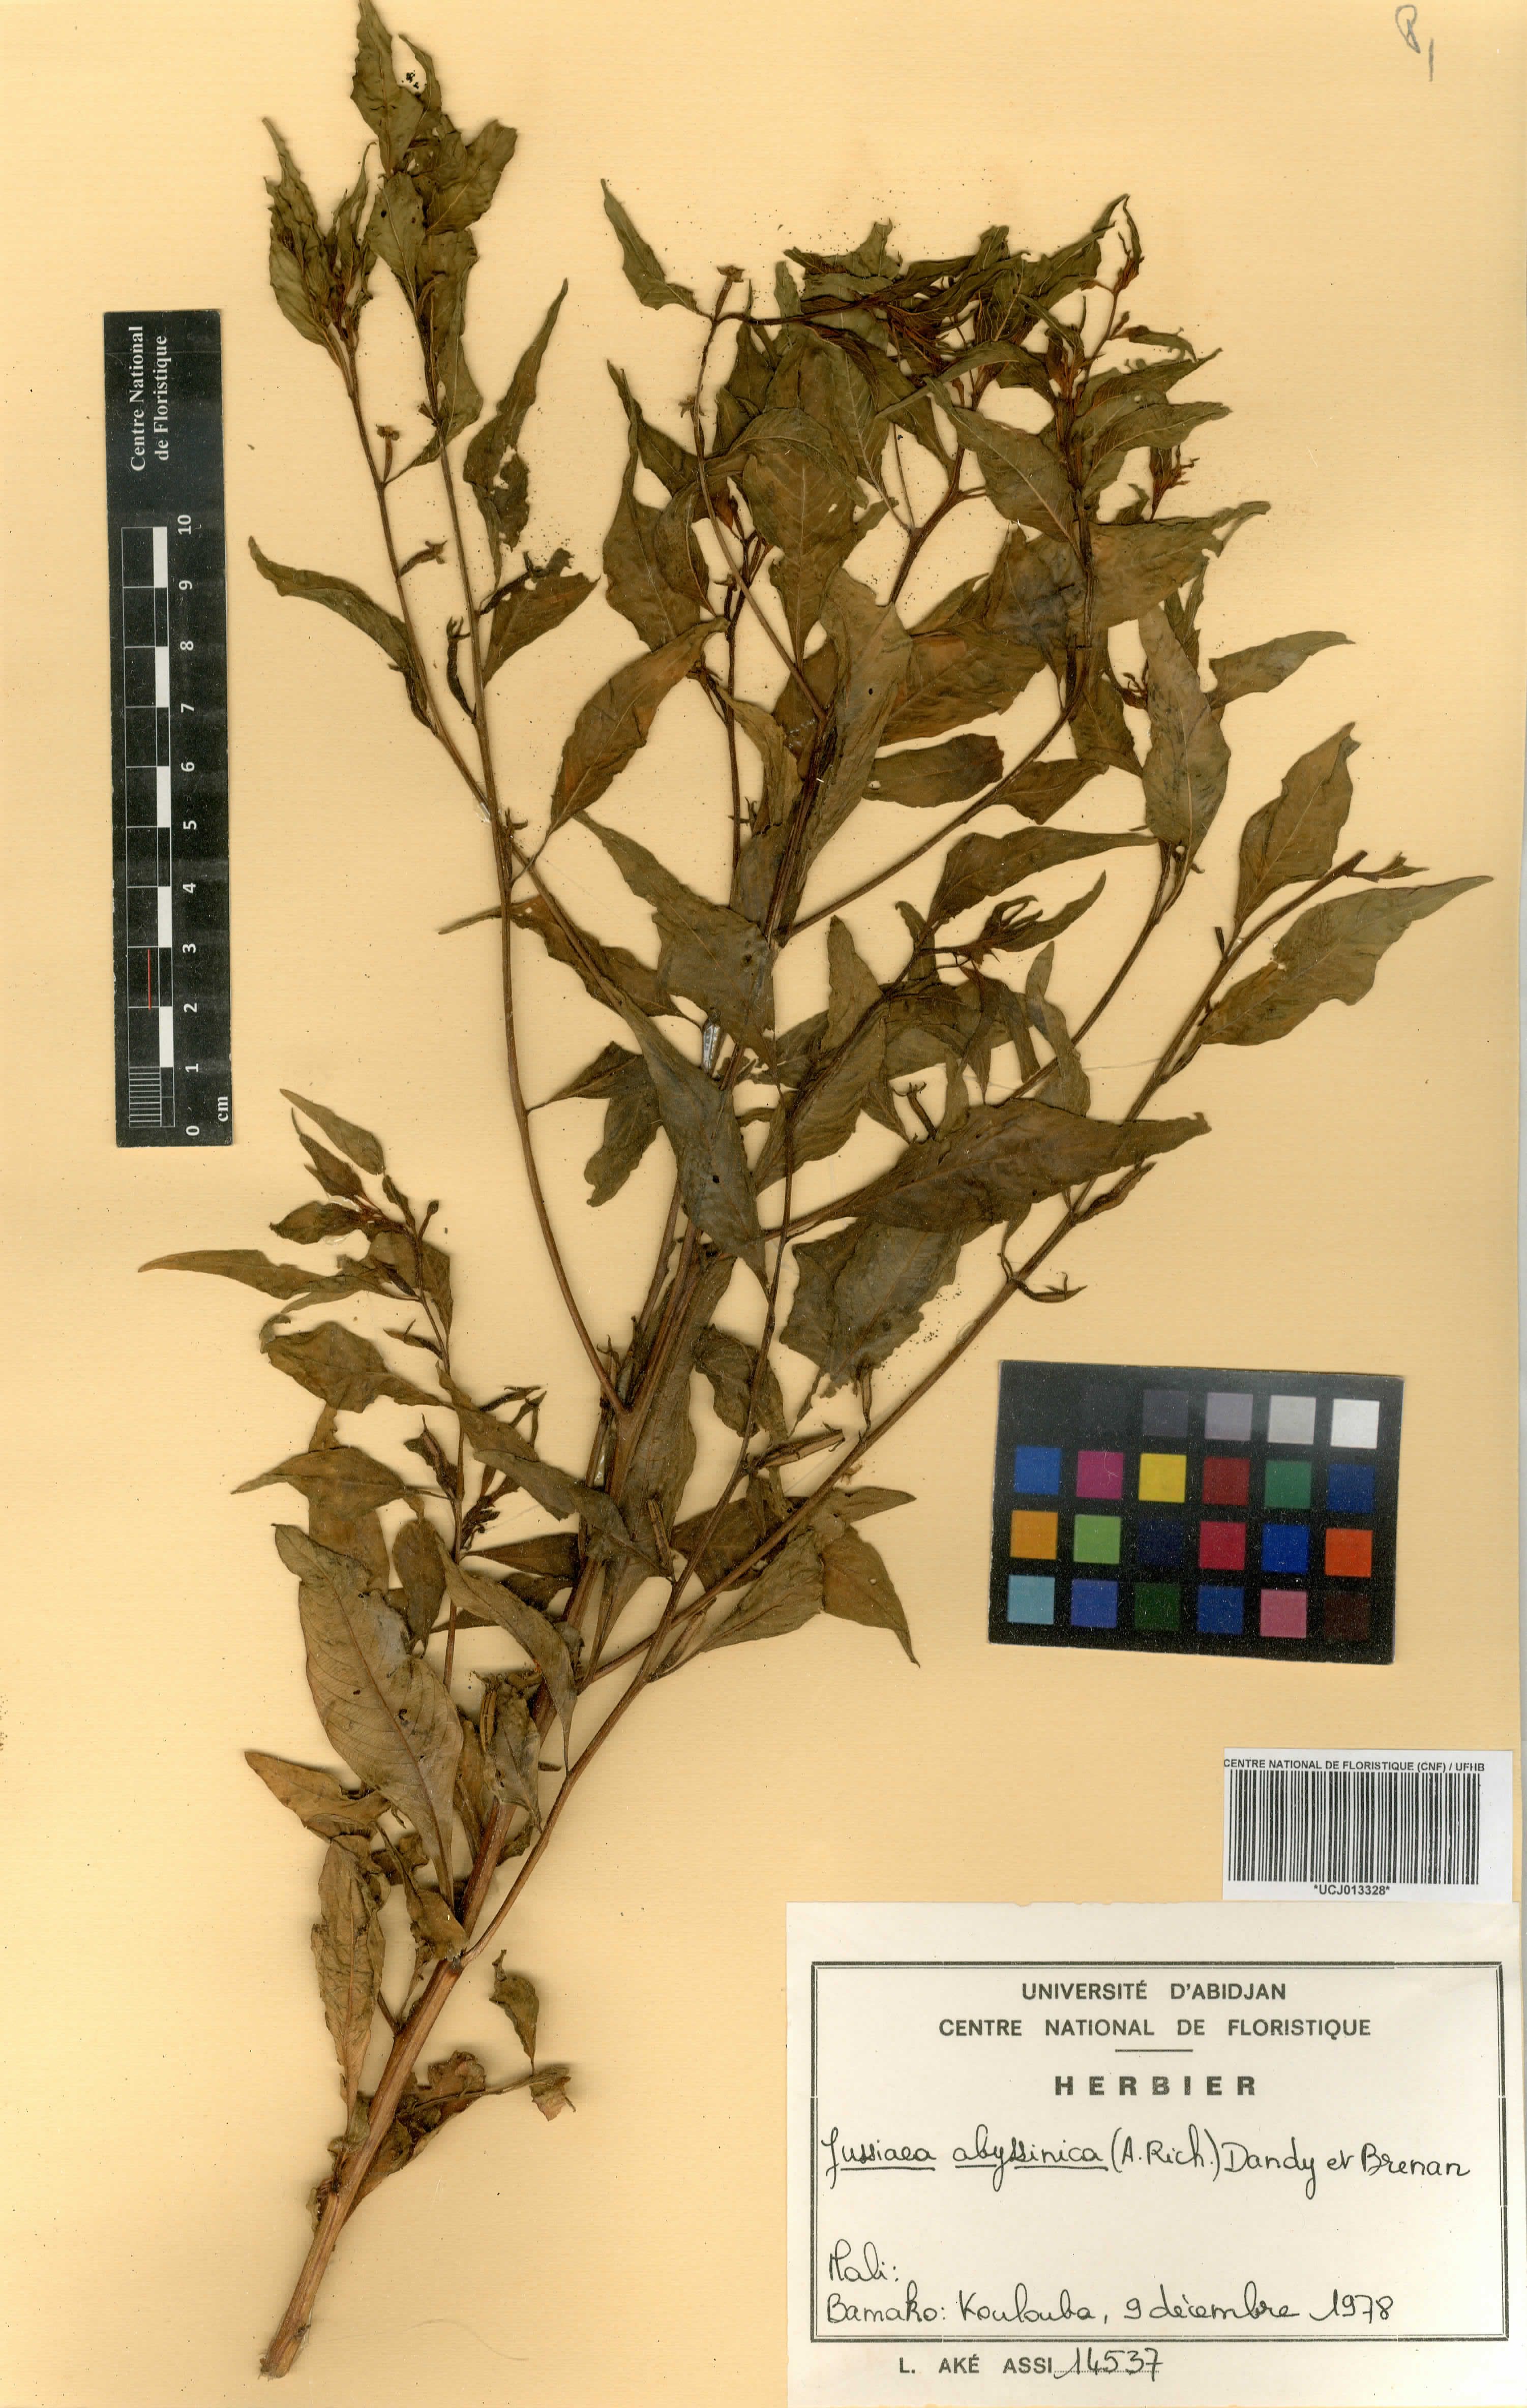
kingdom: Plantae
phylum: Tracheophyta
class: Magnoliopsida
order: Myrtales
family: Onagraceae
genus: Ludwigia
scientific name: Ludwigia abyssinica
